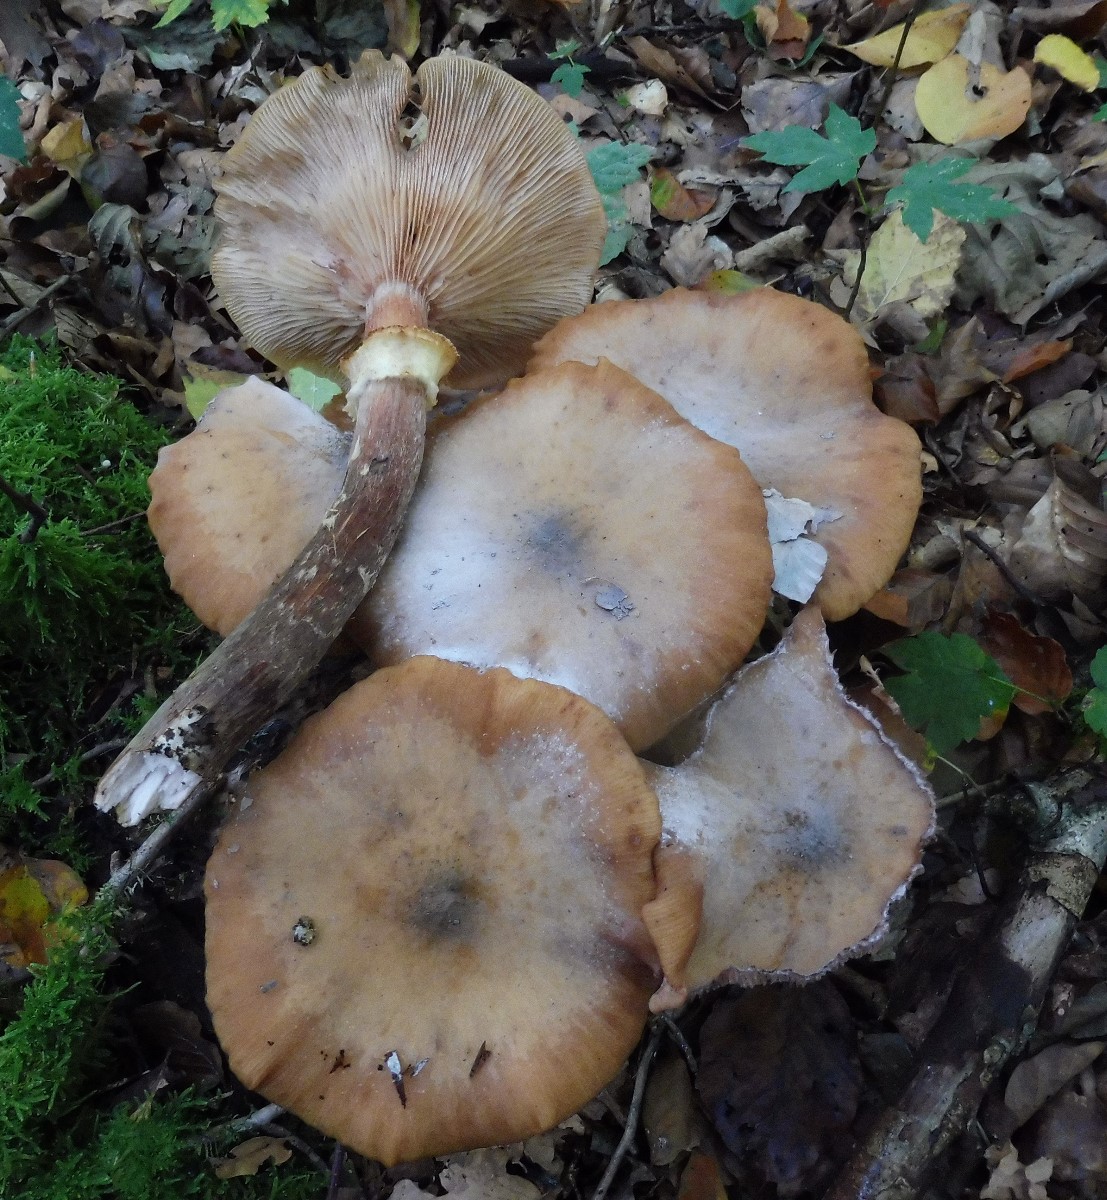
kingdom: Fungi
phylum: Basidiomycota
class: Agaricomycetes
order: Agaricales
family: Physalacriaceae
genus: Armillaria
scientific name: Armillaria mellea
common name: ægte honningsvamp
